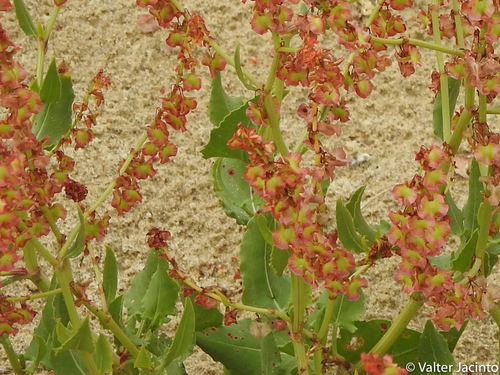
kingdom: Plantae
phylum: Tracheophyta
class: Magnoliopsida
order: Caryophyllales
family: Polygonaceae
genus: Rumex
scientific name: Rumex roseus
